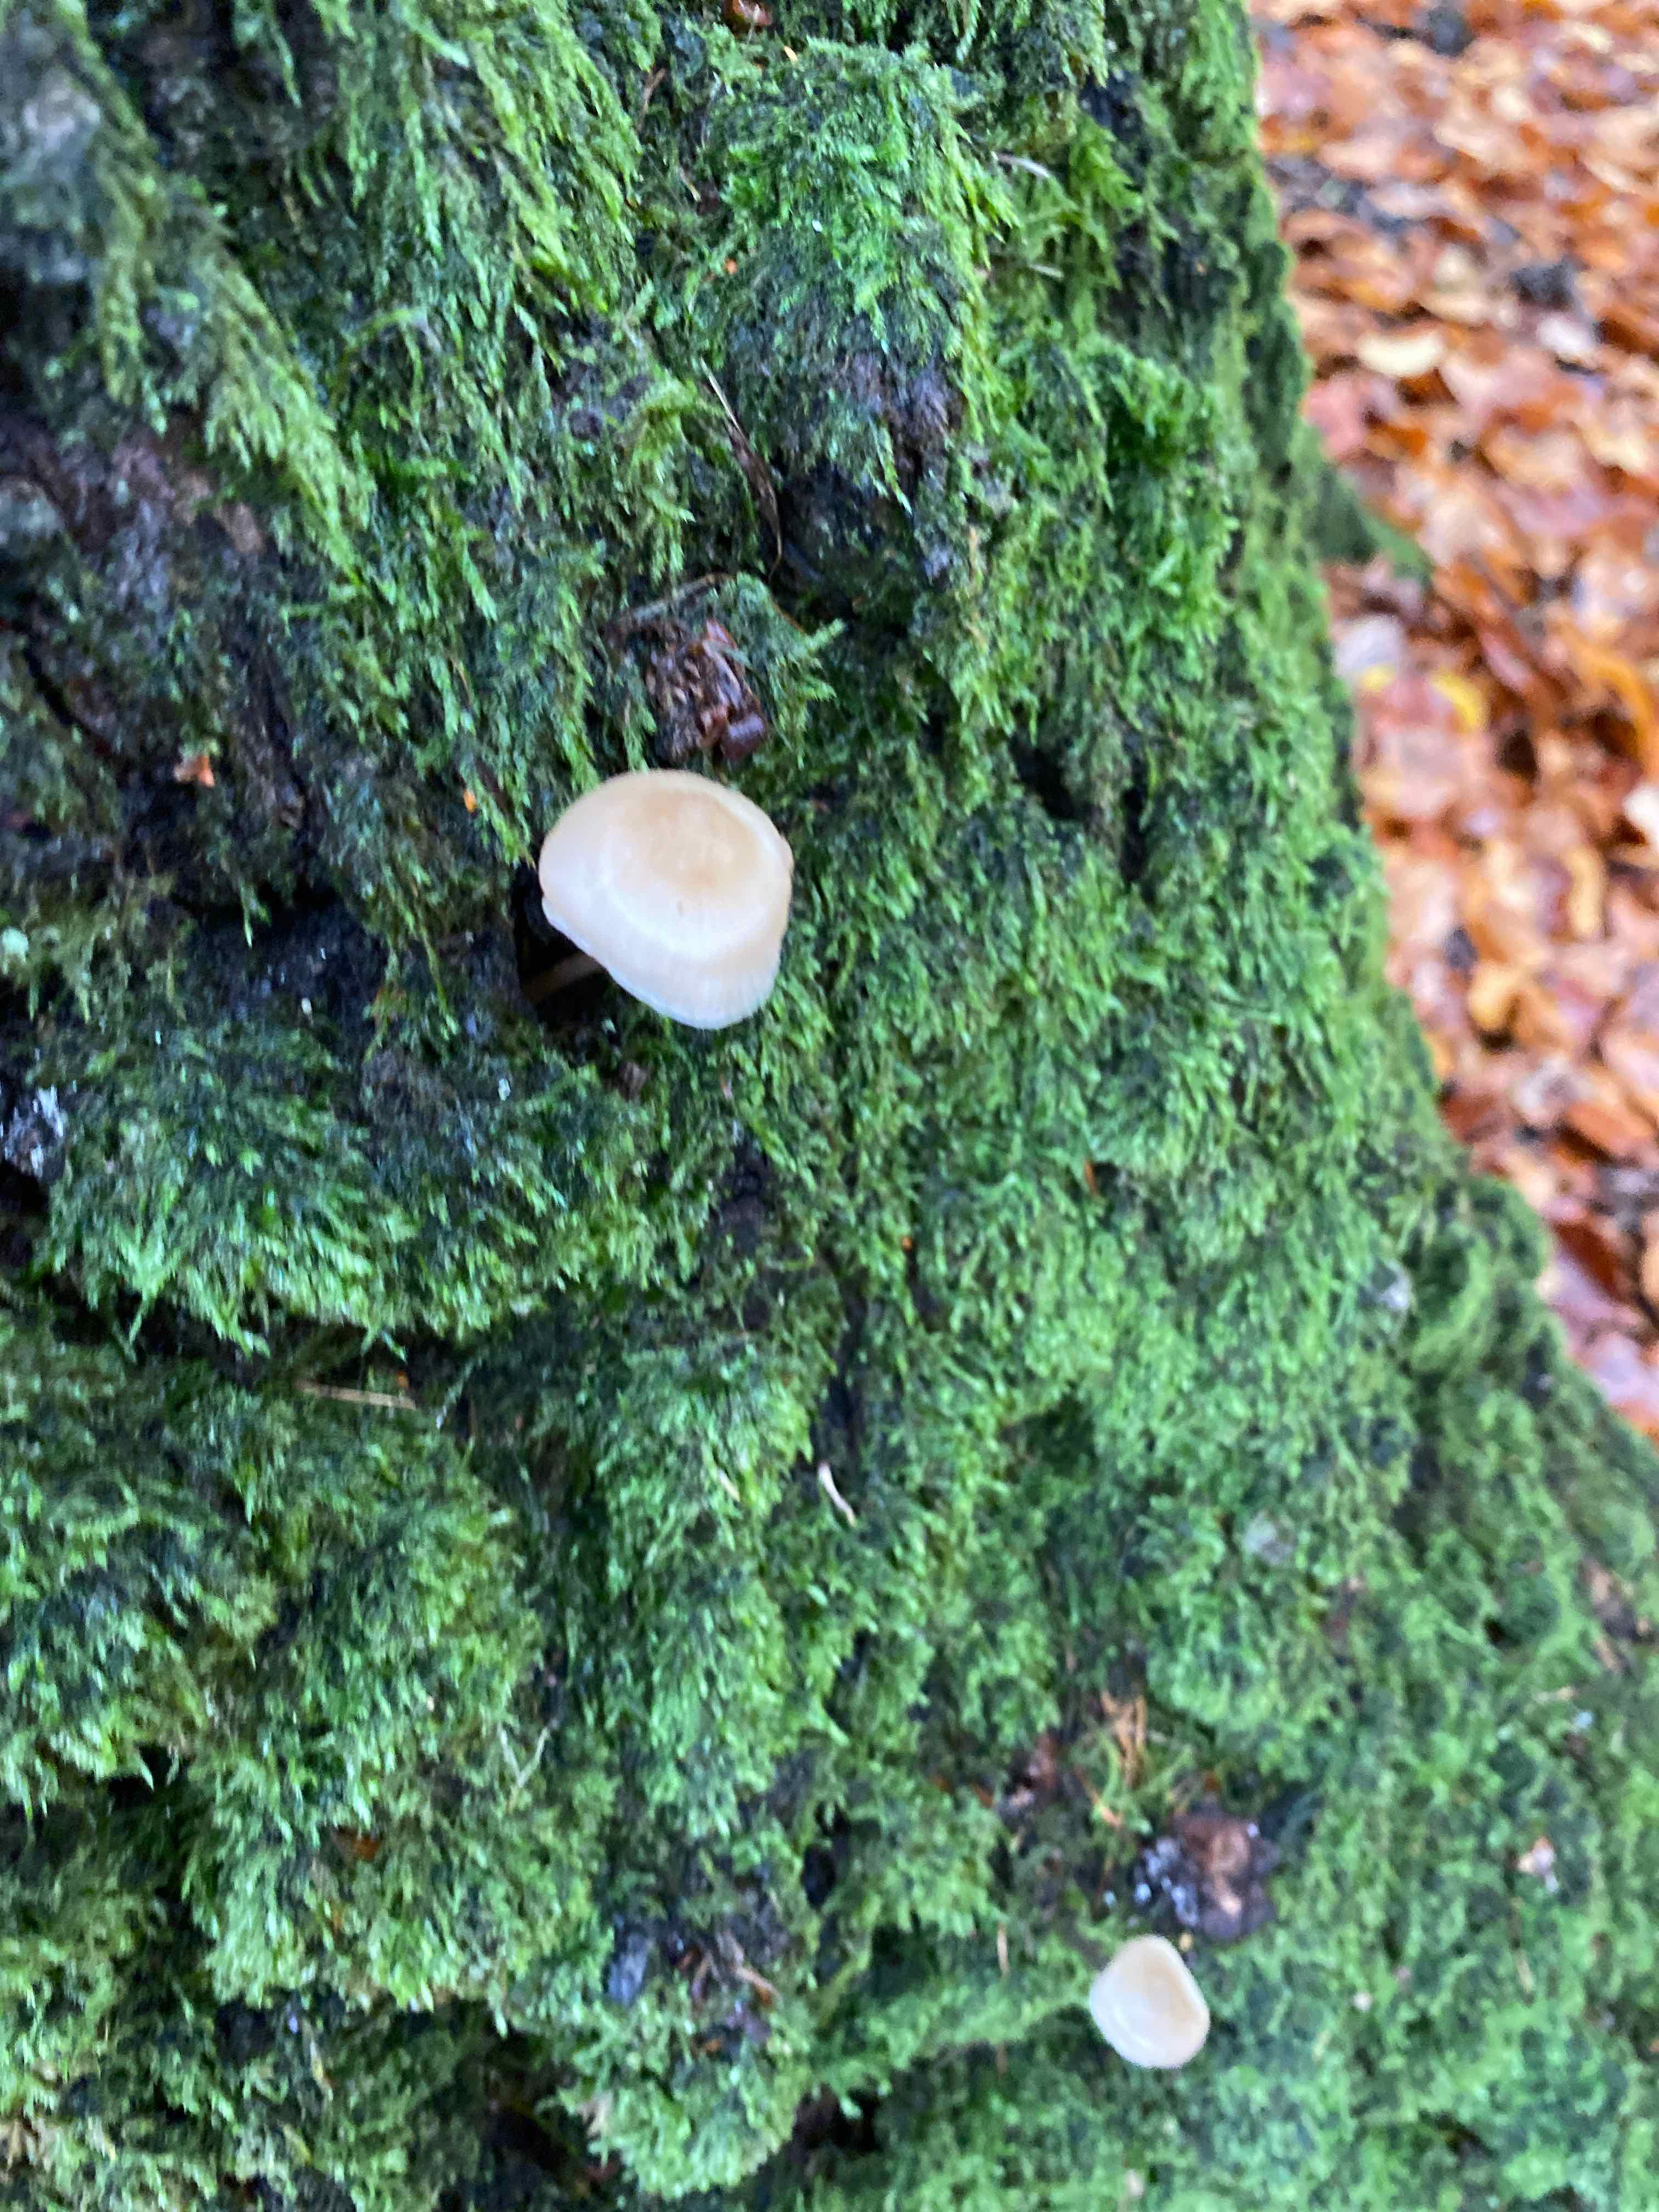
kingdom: Fungi
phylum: Basidiomycota
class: Agaricomycetes
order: Agaricales
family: Mycenaceae
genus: Mycena
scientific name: Mycena
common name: huesvamp
